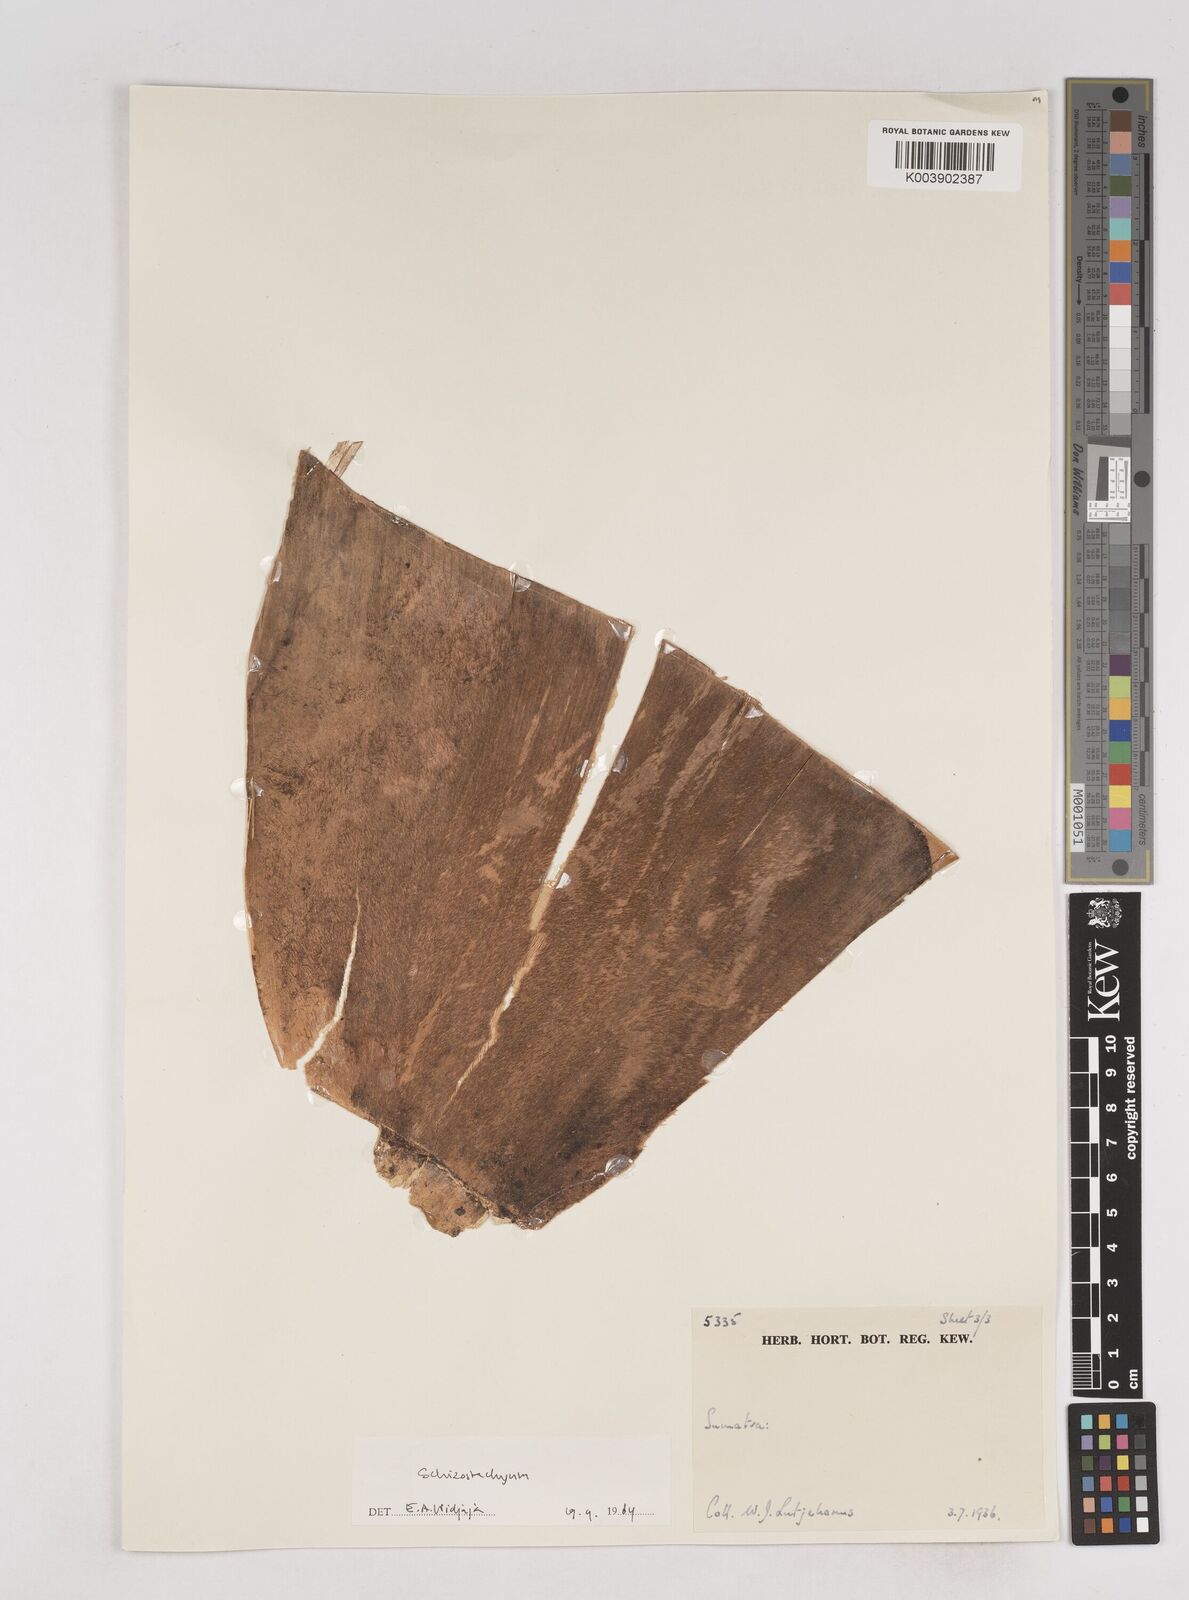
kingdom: Plantae
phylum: Tracheophyta
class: Liliopsida
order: Poales
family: Poaceae
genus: Schizostachyum
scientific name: Schizostachyum zollingeri
